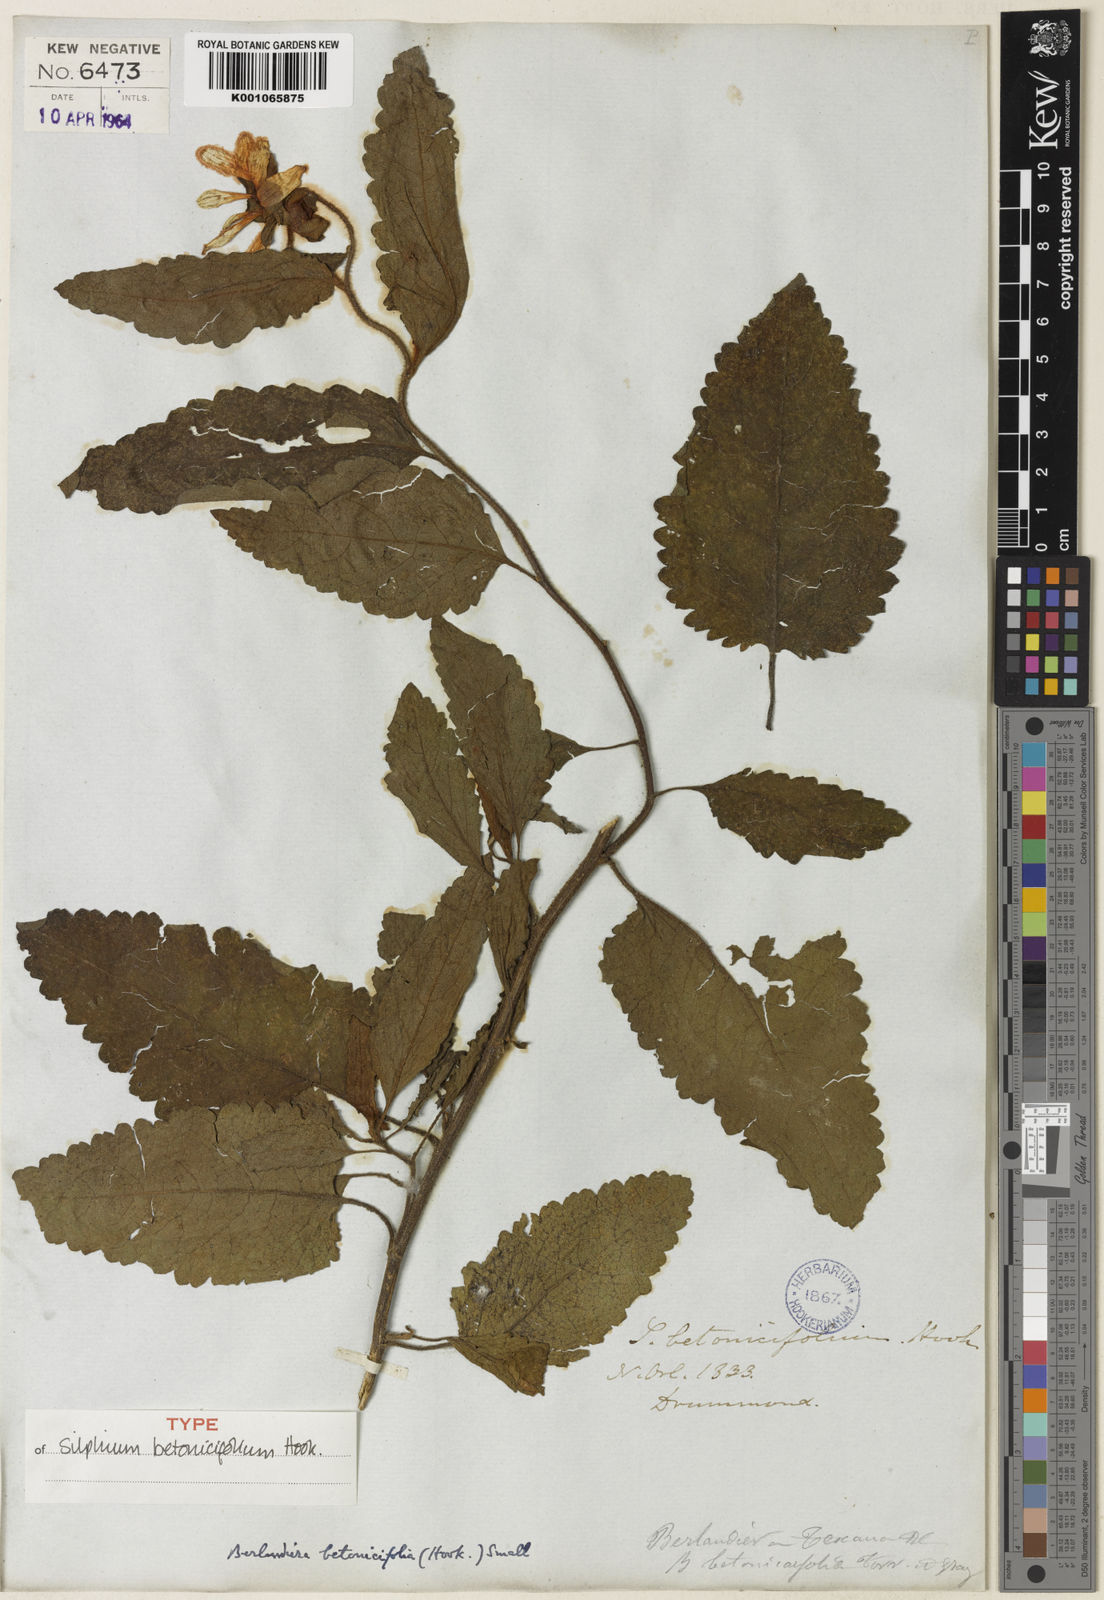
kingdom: Plantae
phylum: Tracheophyta
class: Magnoliopsida
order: Asterales
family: Asteraceae
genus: Berlandiera
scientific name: Berlandiera
